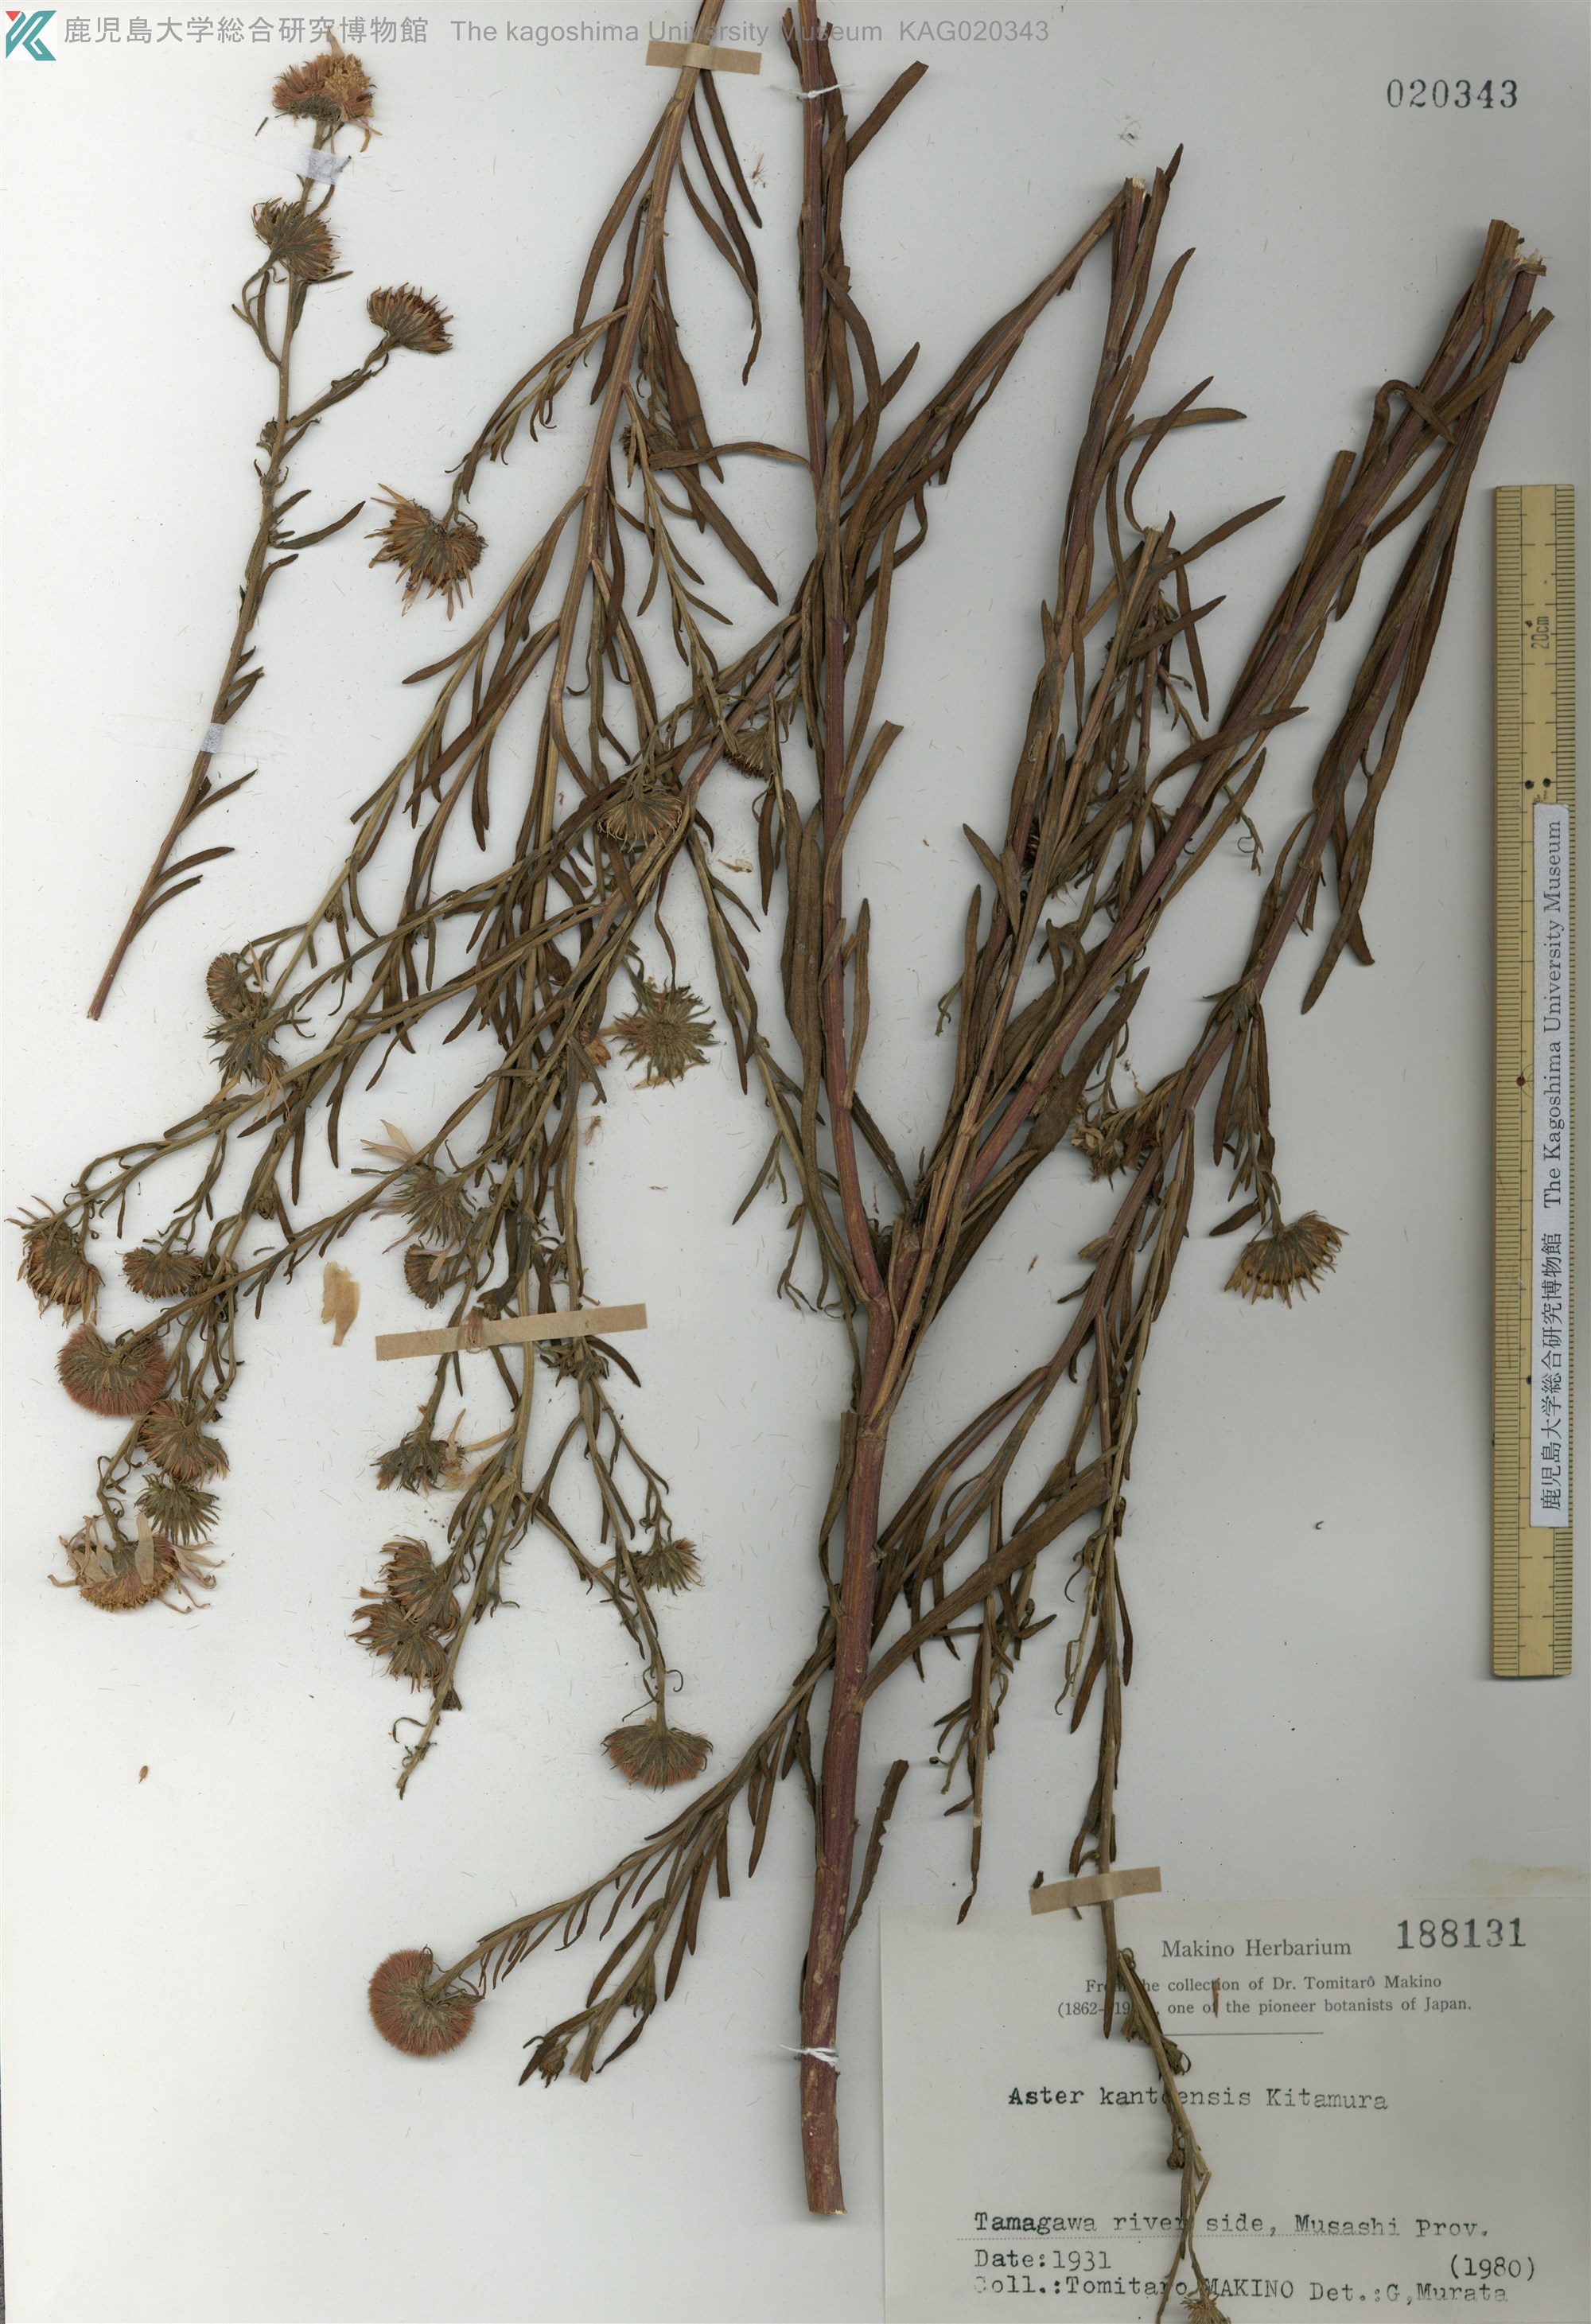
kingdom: Plantae
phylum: Tracheophyta
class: Magnoliopsida
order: Asterales
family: Asteraceae
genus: Aster
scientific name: Aster kantoensis
